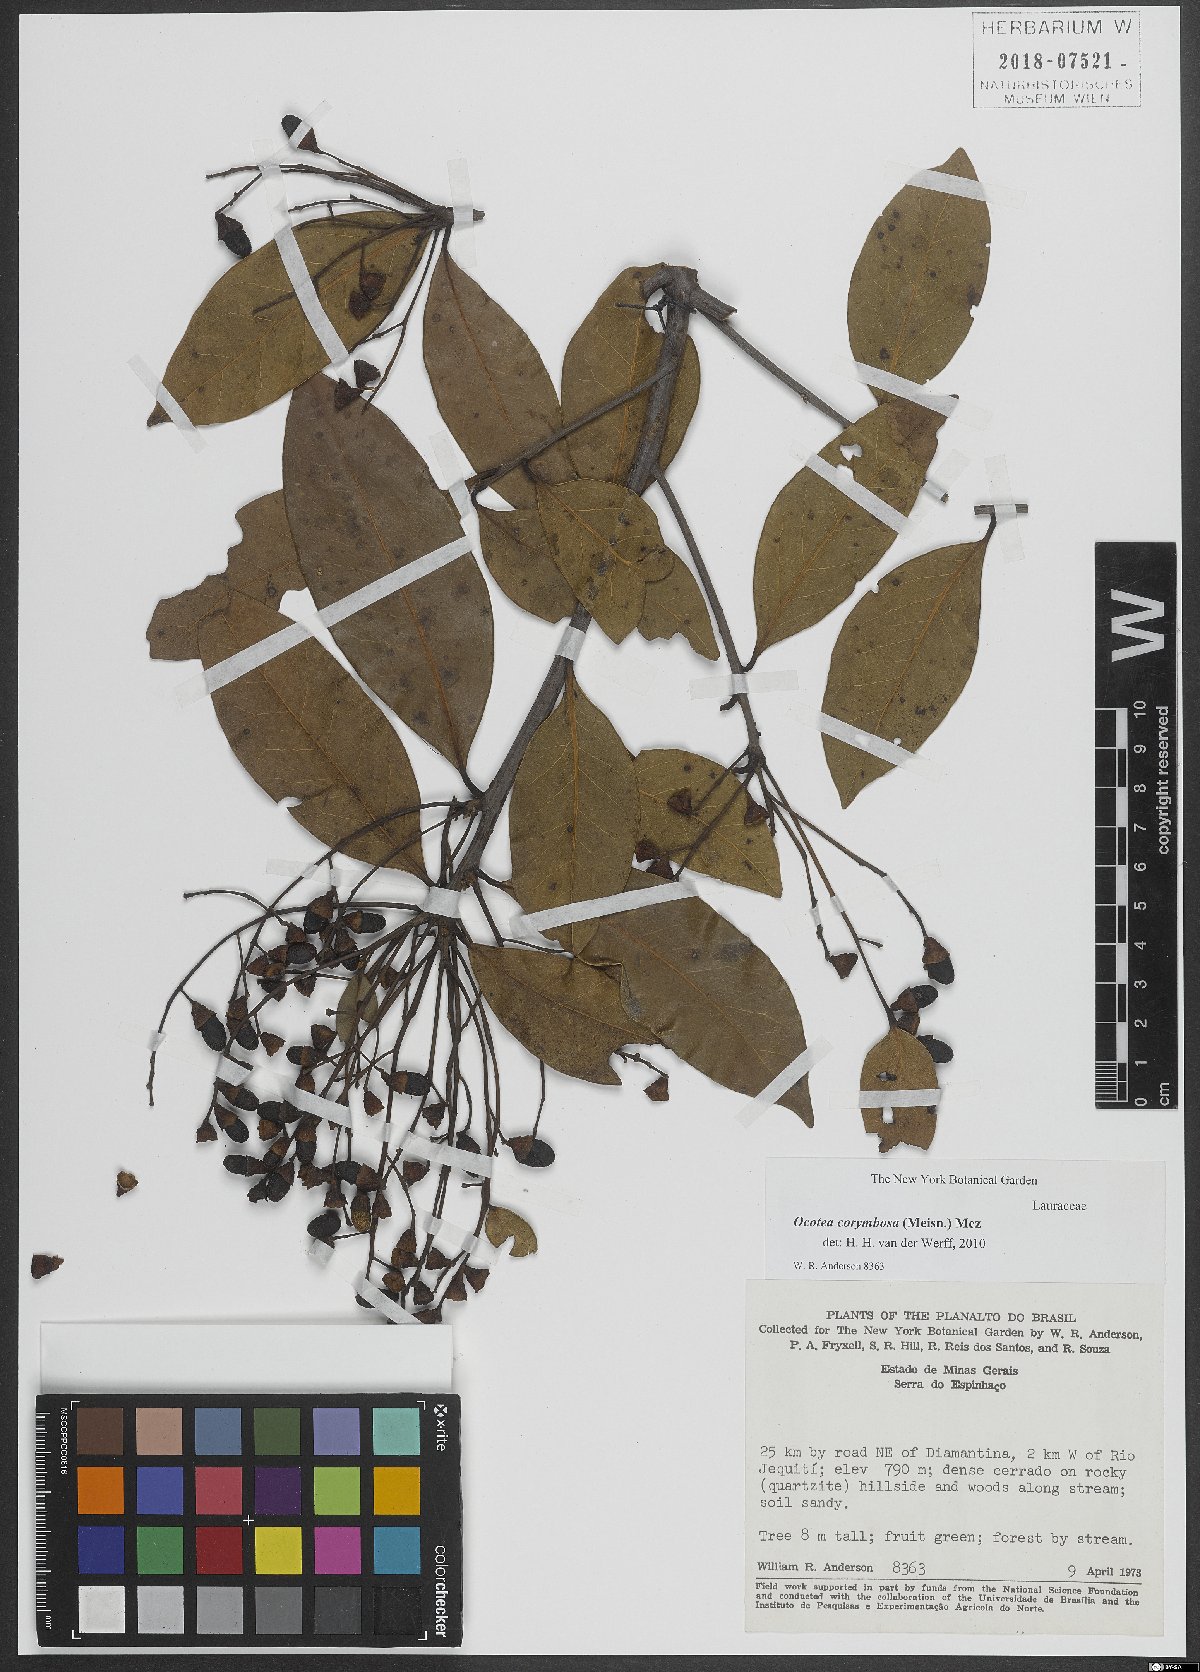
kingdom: Plantae
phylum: Tracheophyta
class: Magnoliopsida
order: Laurales
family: Lauraceae
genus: Mespilodaphne
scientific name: Mespilodaphne corymbosa
